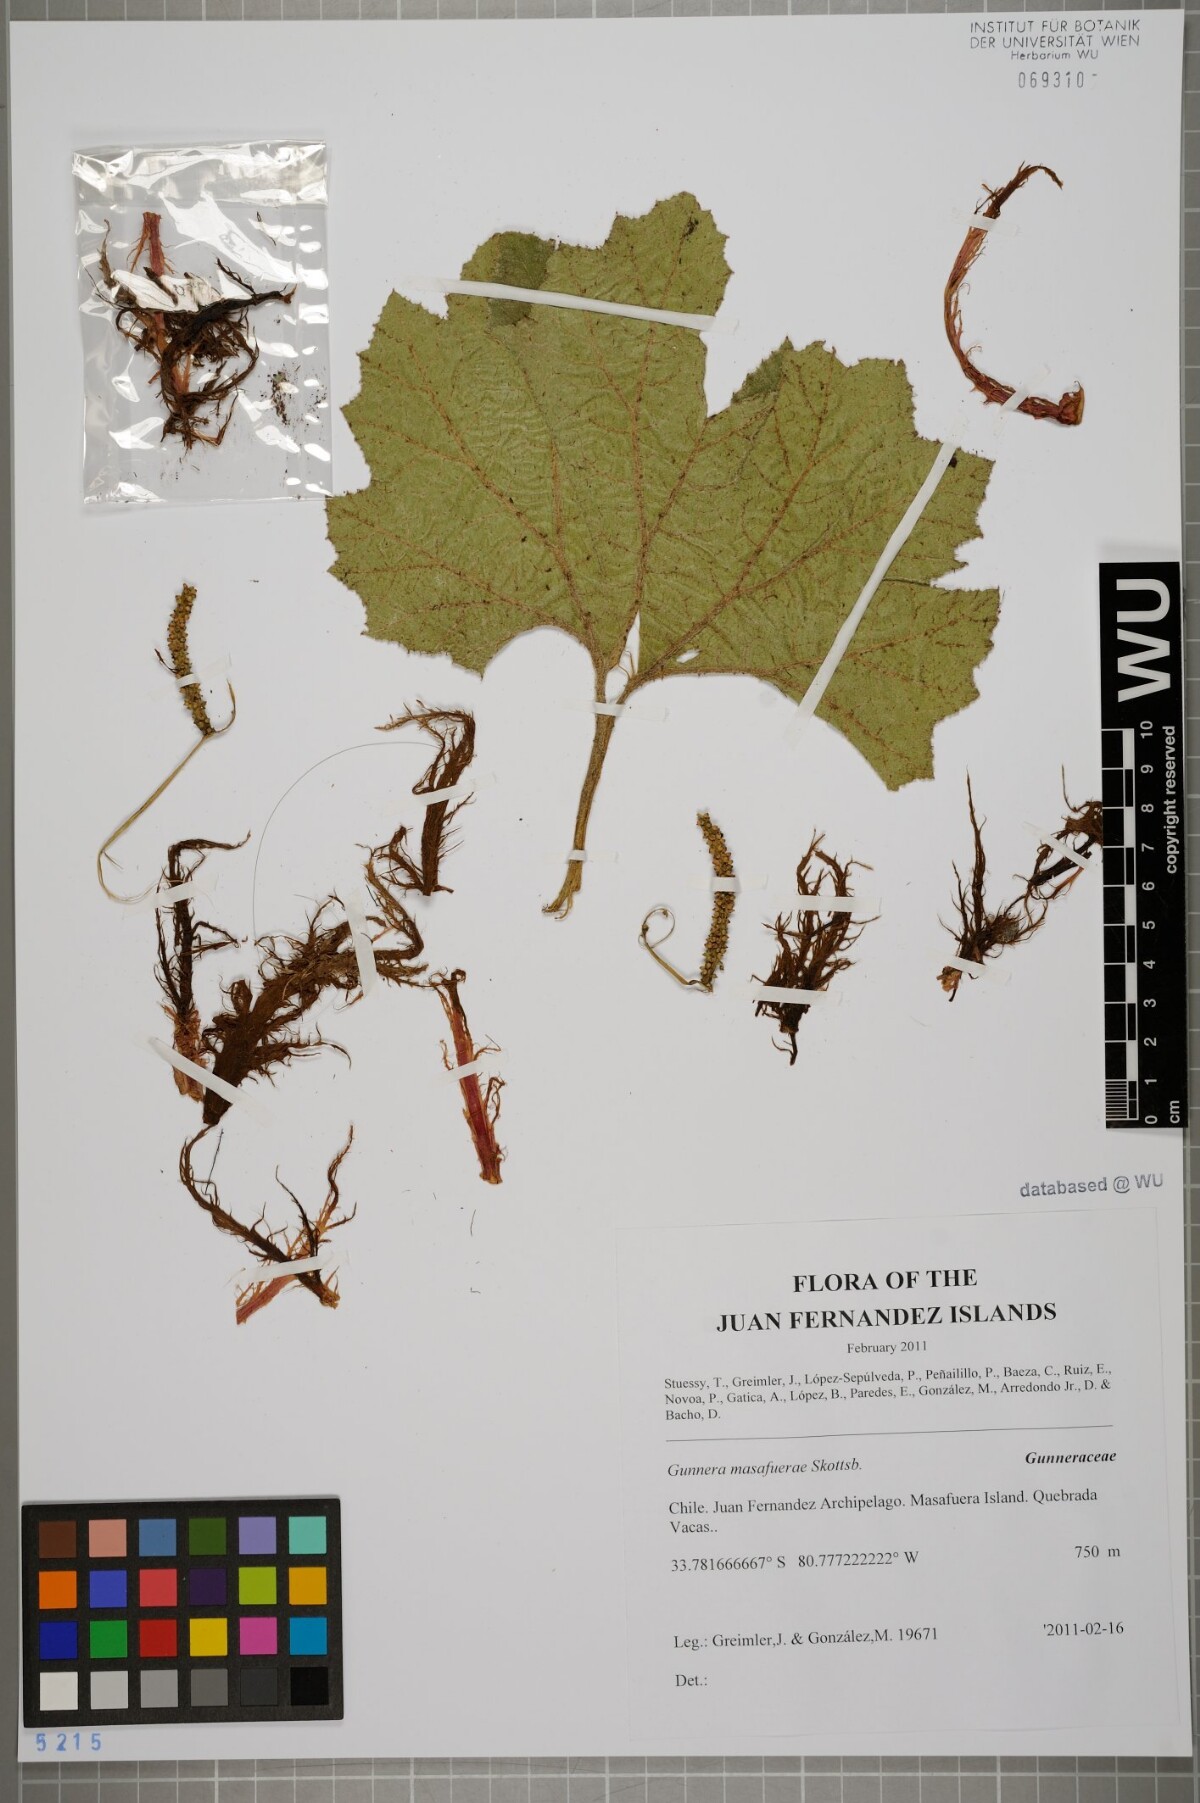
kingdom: Plantae
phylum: Tracheophyta
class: Magnoliopsida
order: Gunnerales
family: Gunneraceae
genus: Gunnera
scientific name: Gunnera masafuerae
